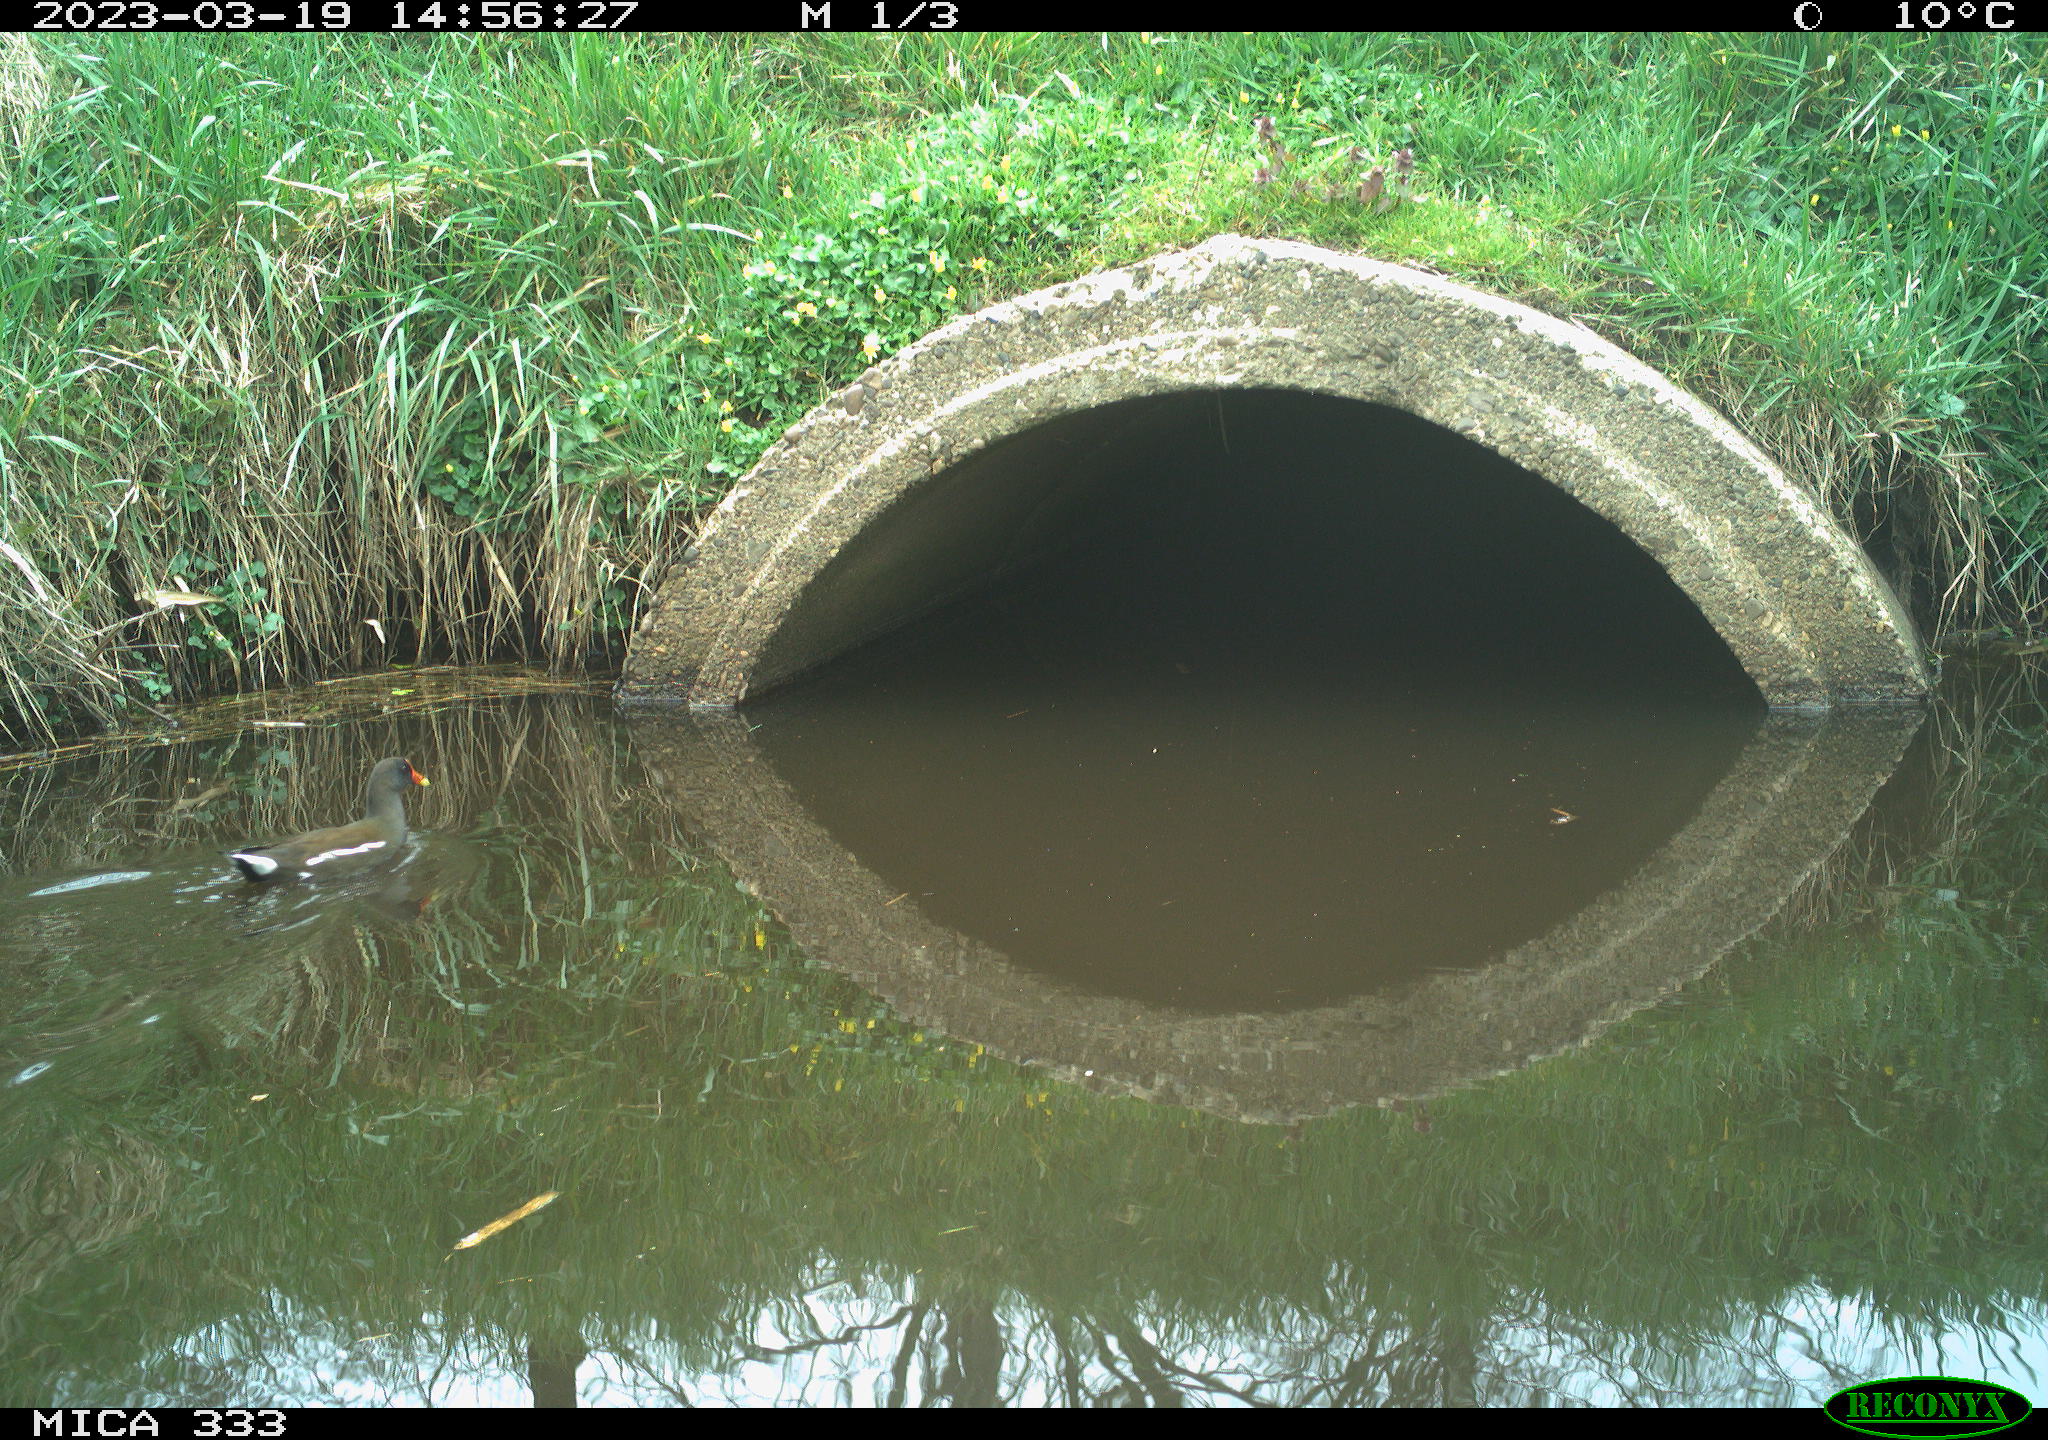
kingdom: Animalia
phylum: Chordata
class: Aves
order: Gruiformes
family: Rallidae
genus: Gallinula
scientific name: Gallinula chloropus
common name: Common moorhen
